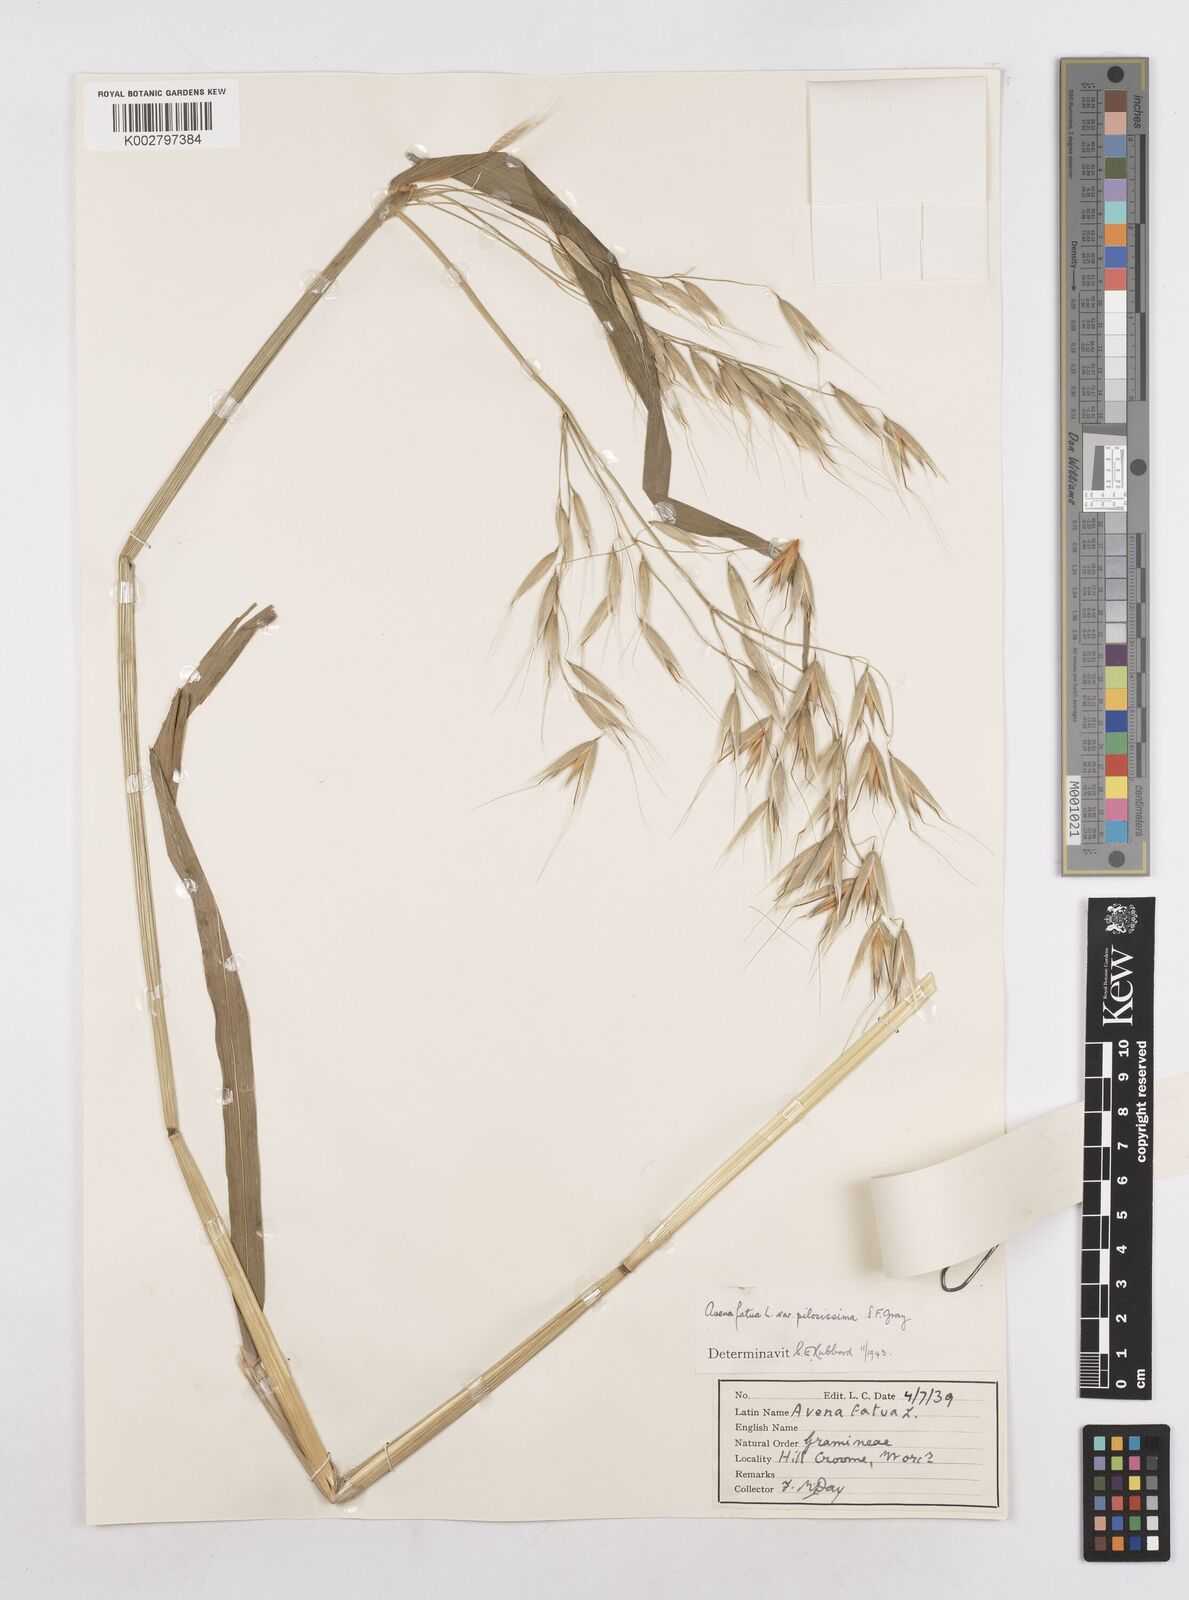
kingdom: Plantae
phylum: Tracheophyta
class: Liliopsida
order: Poales
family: Poaceae
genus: Avena
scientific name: Avena fatua
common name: Wild oat
